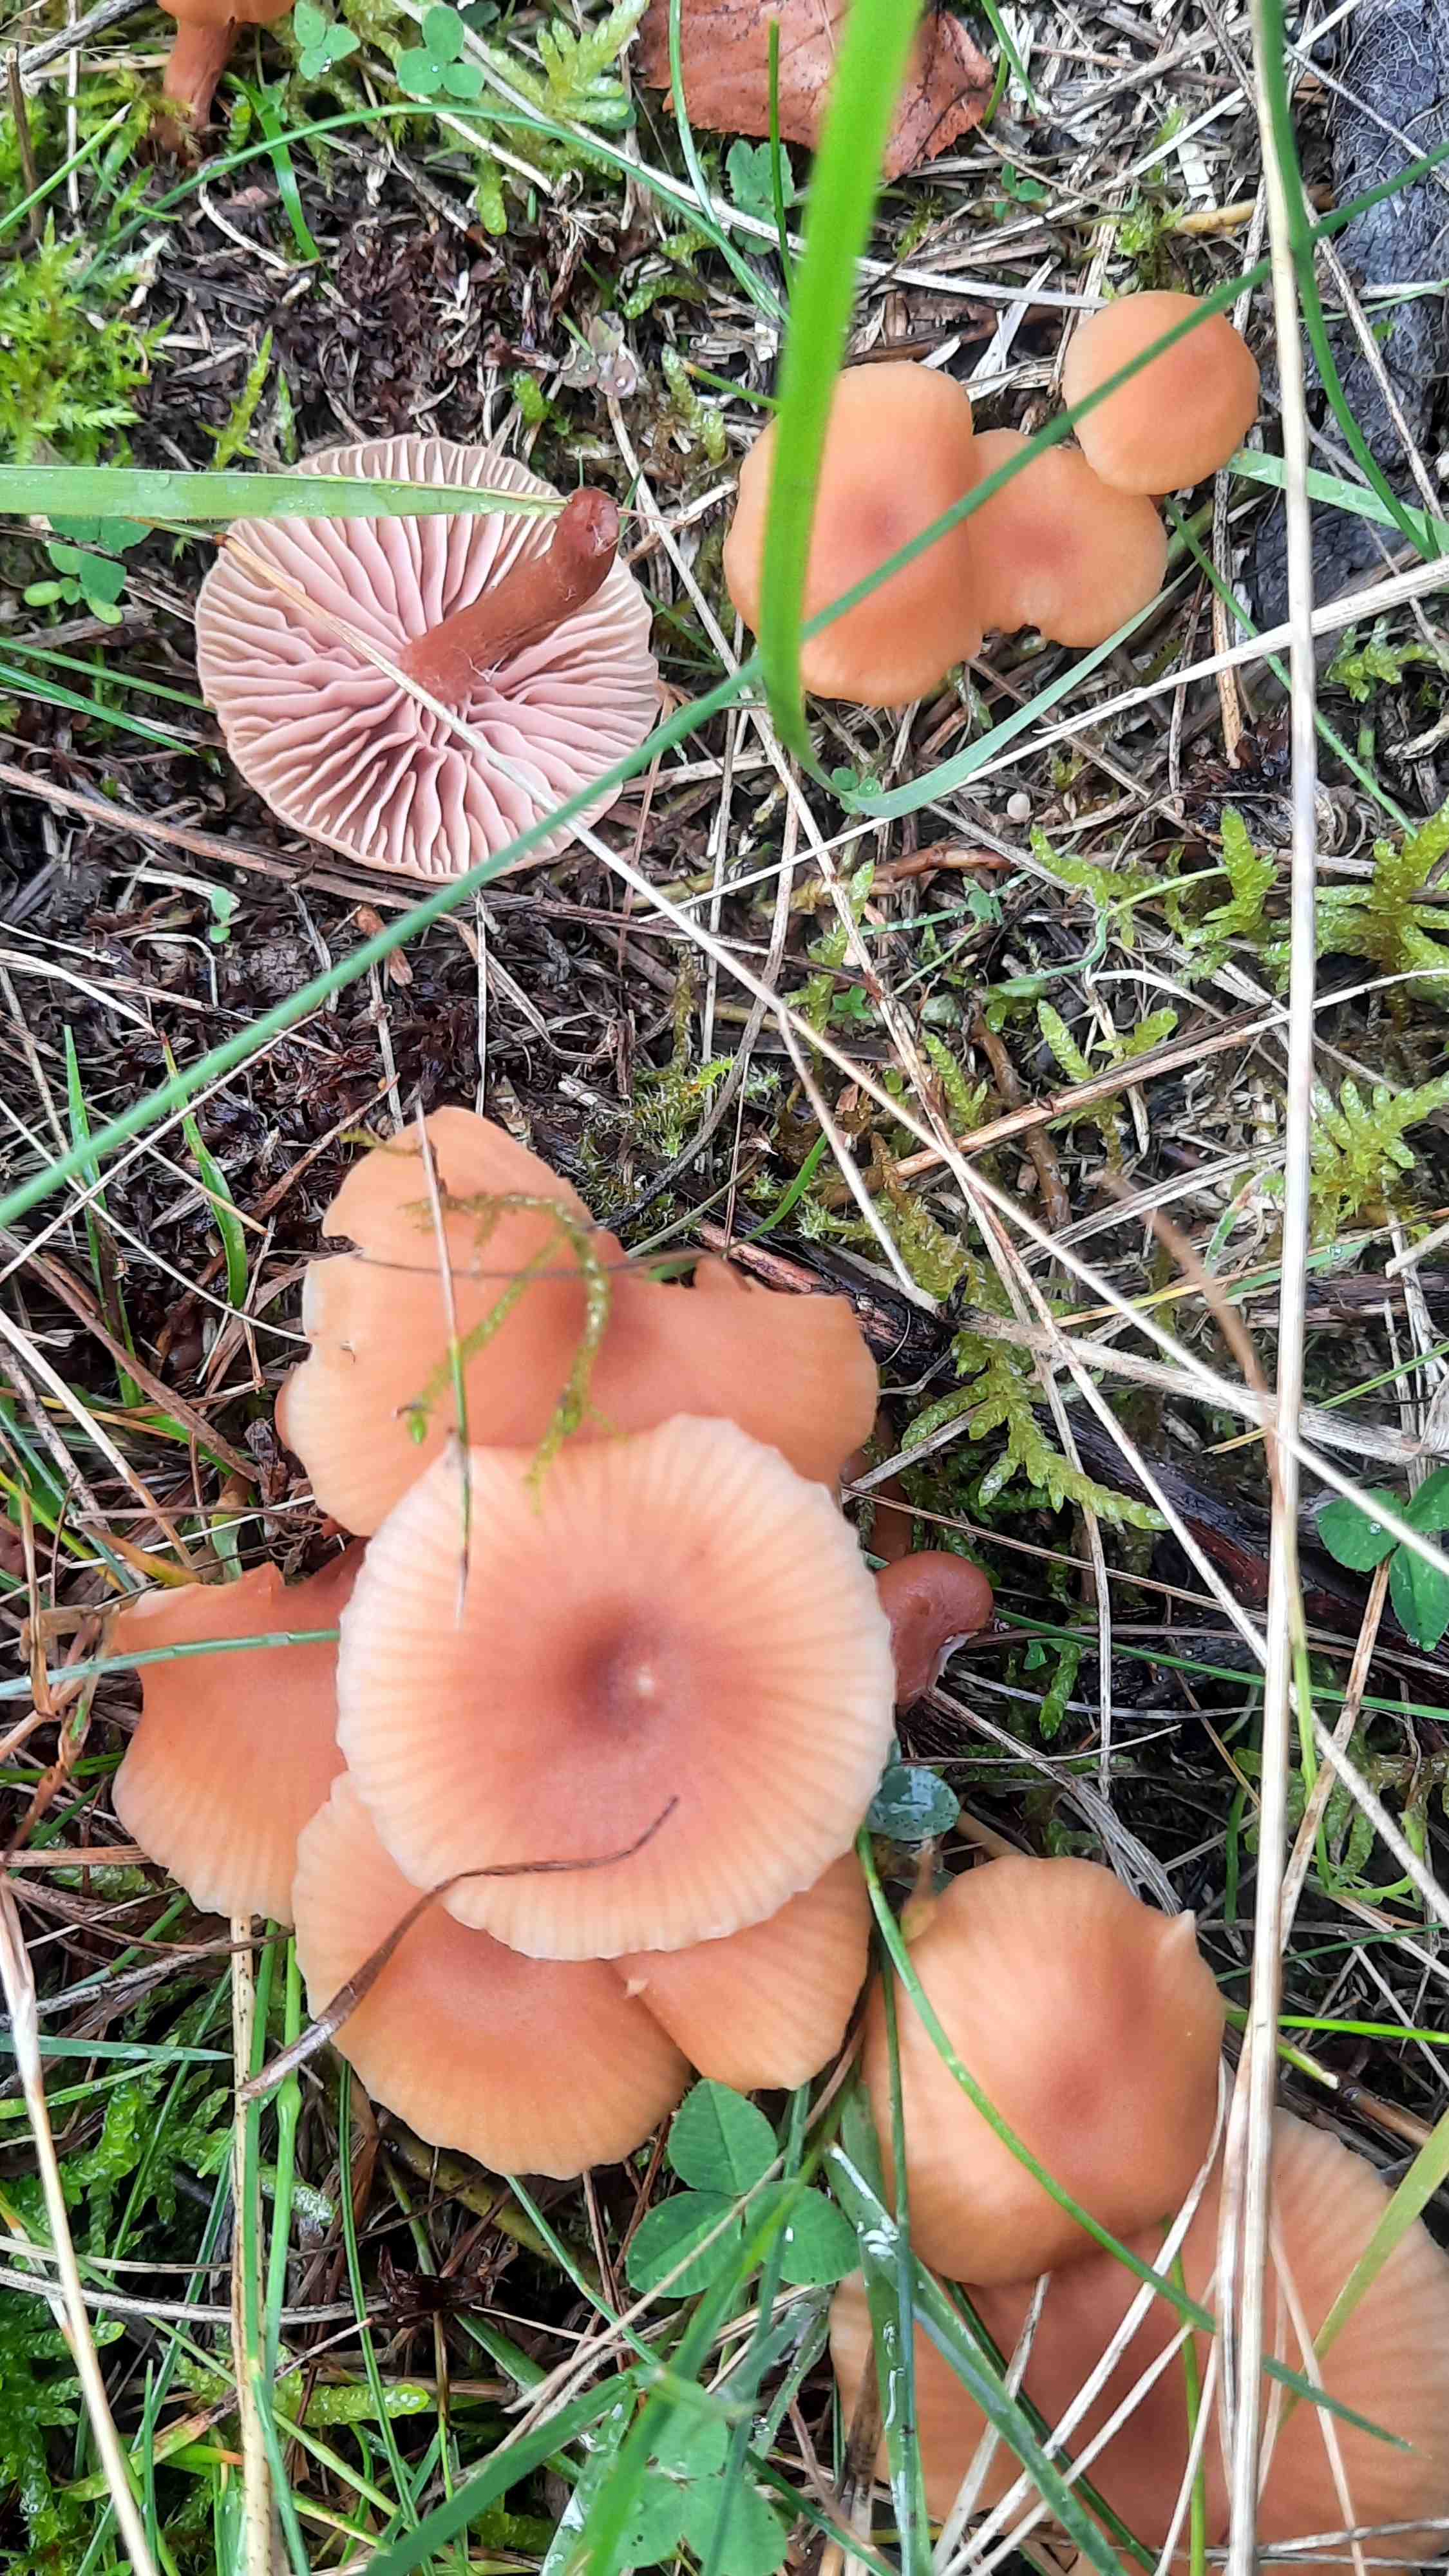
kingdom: Fungi
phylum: Basidiomycota
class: Agaricomycetes
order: Agaricales
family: Hydnangiaceae
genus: Laccaria
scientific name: Laccaria laccata
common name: rød ametysthat
